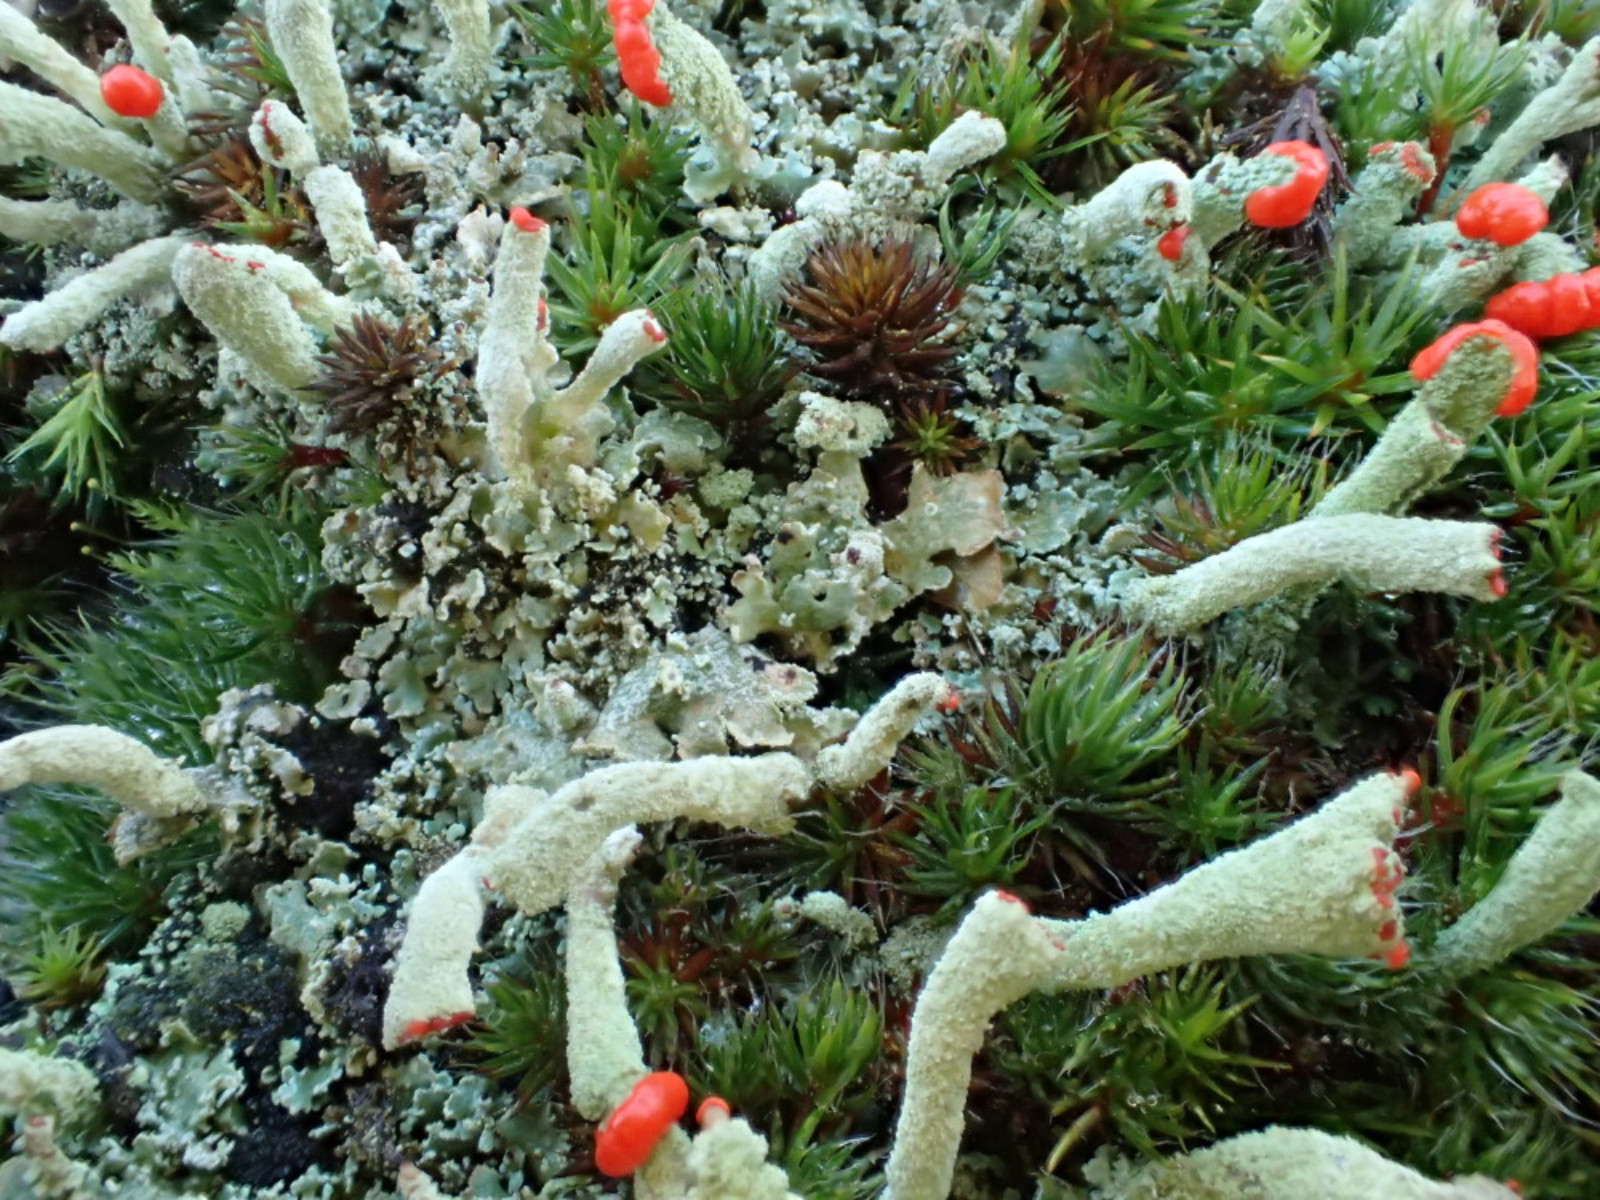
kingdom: Fungi
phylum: Ascomycota
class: Lecanoromycetes
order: Lecanorales
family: Cladoniaceae
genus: Cladonia
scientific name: Cladonia polydactyla
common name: vifte-bægerlav
